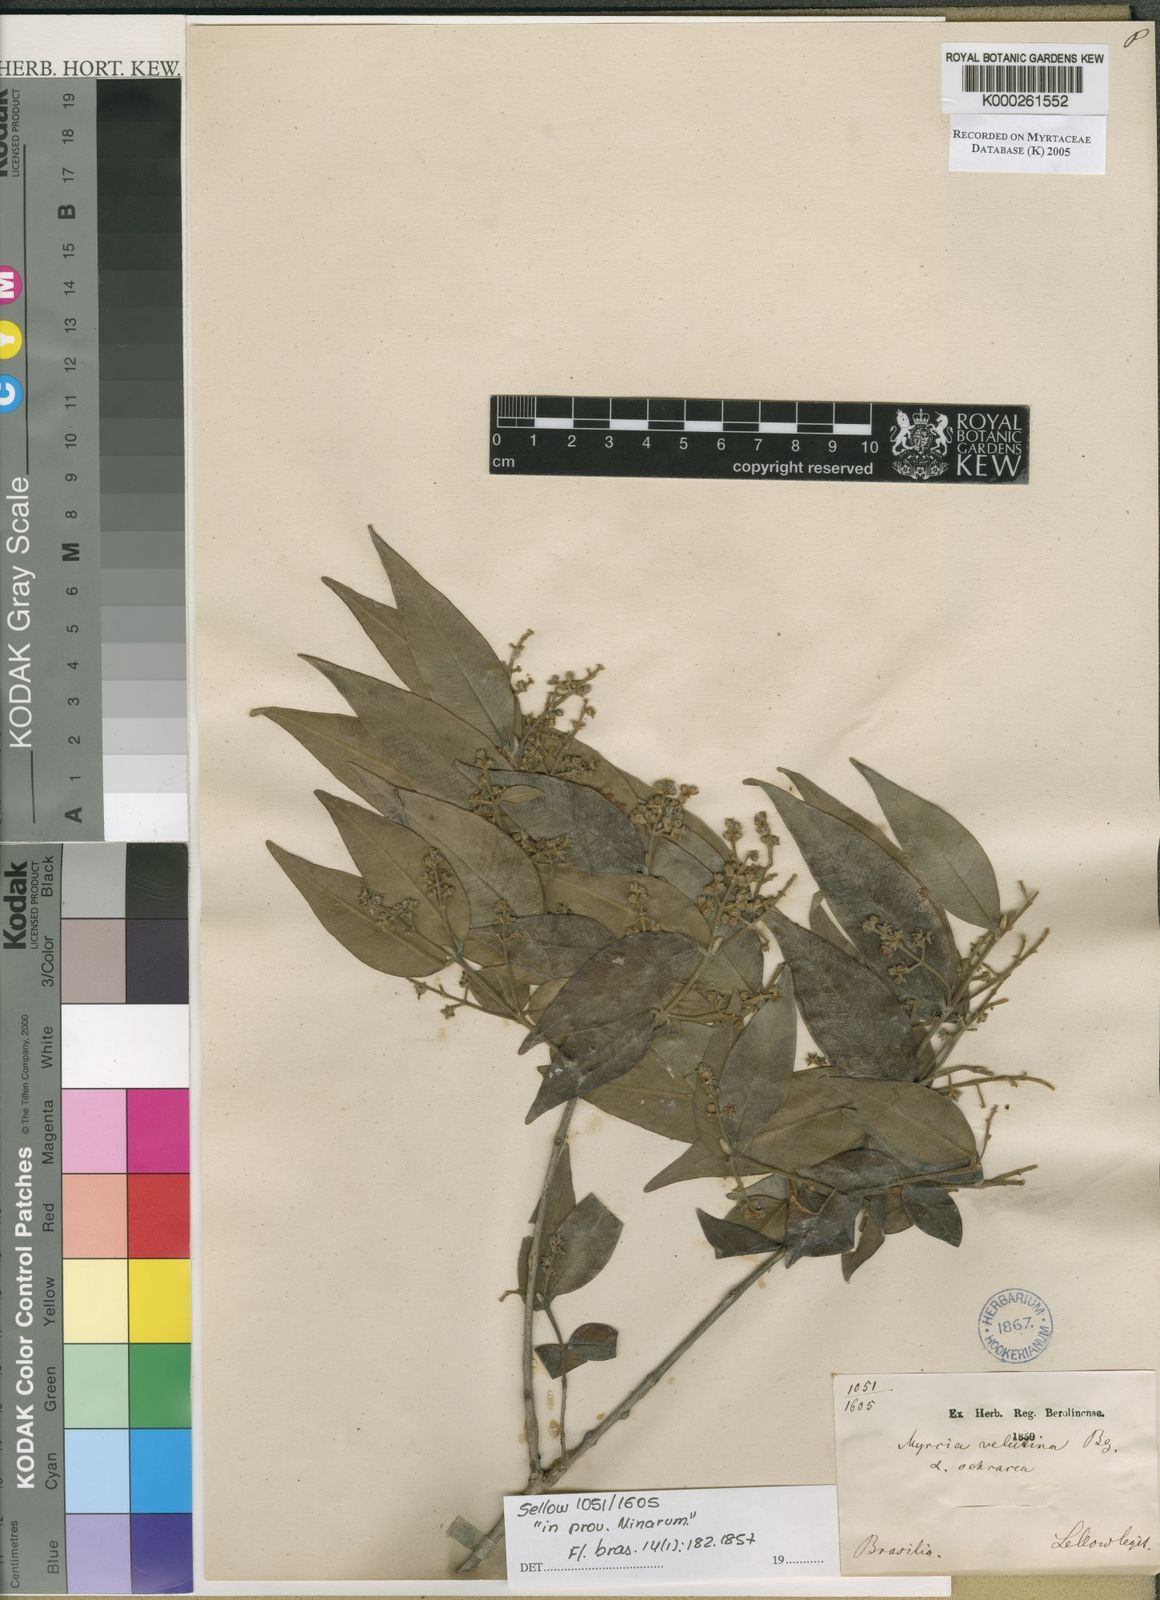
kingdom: Plantae
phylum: Tracheophyta
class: Magnoliopsida
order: Myrtales
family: Myrtaceae
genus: Myrcia
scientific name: Myrcia splendens
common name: Surinam cherry
